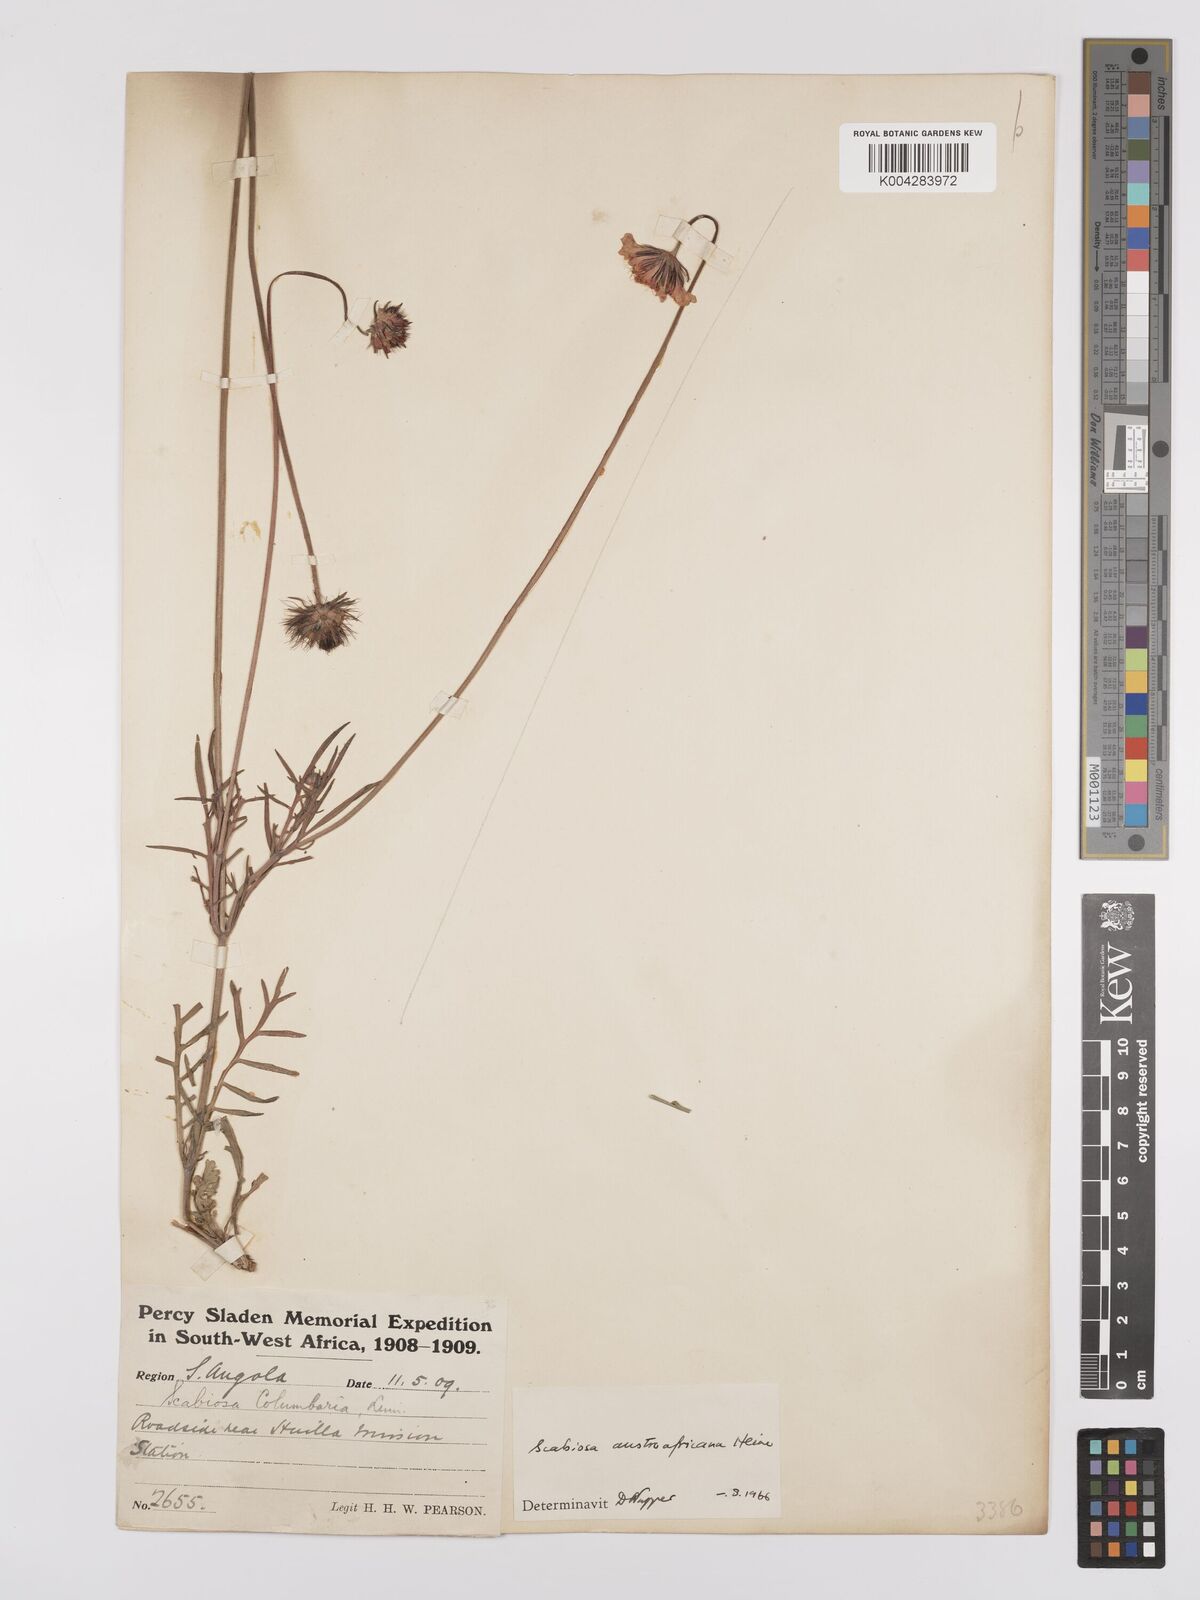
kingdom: Plantae
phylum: Tracheophyta
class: Magnoliopsida
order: Dipsacales
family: Caprifoliaceae
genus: Scabiosa
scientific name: Scabiosa austroafricana
